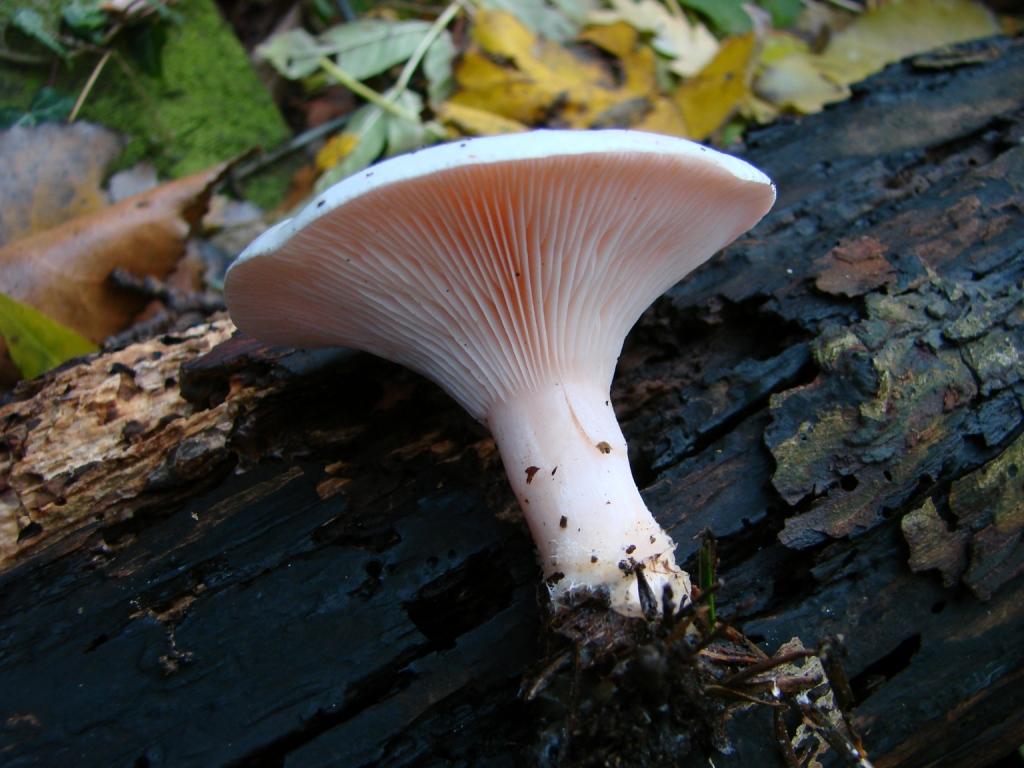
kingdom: Fungi
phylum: Basidiomycota
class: Agaricomycetes
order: Agaricales
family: Tricholomataceae
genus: Pseudoclitopilus
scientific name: Pseudoclitopilus rhodoleucus
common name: rosabladet tragtridderhat
